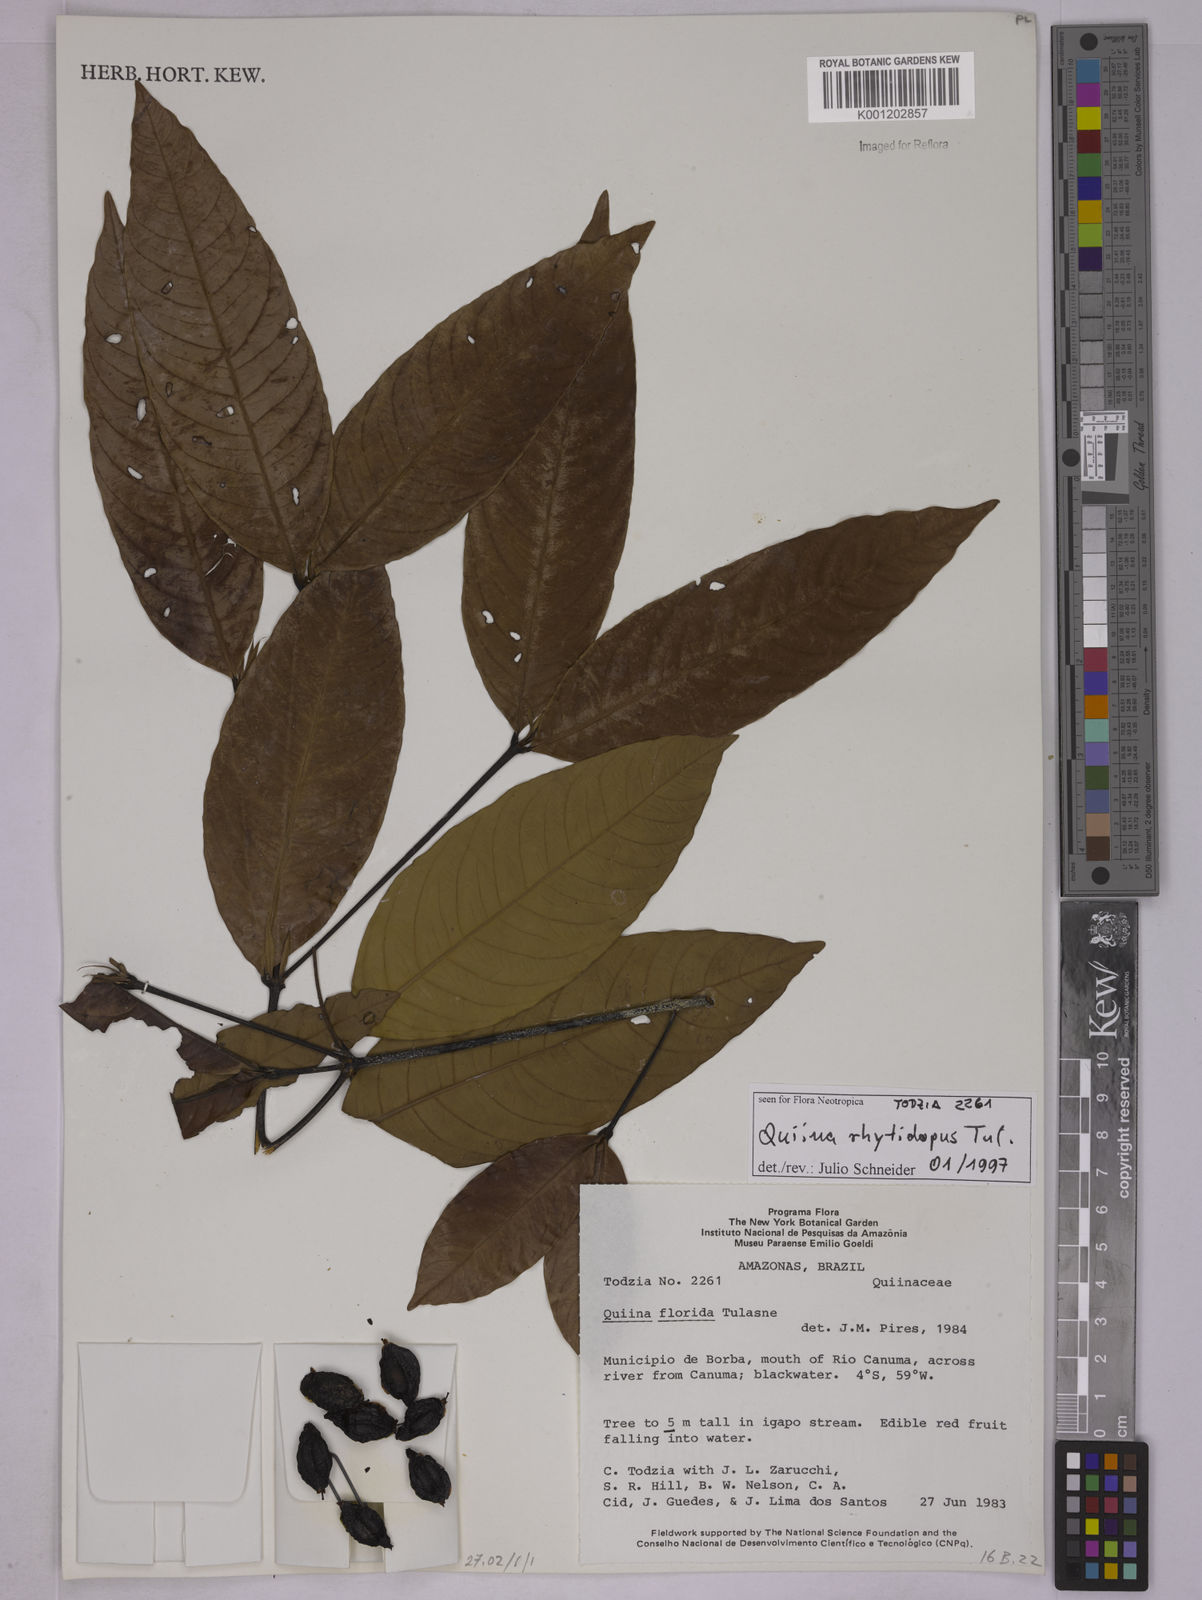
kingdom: Plantae
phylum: Tracheophyta
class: Magnoliopsida
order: Malpighiales
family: Quiinaceae
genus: Quiina
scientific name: Quiina rhytidopus
